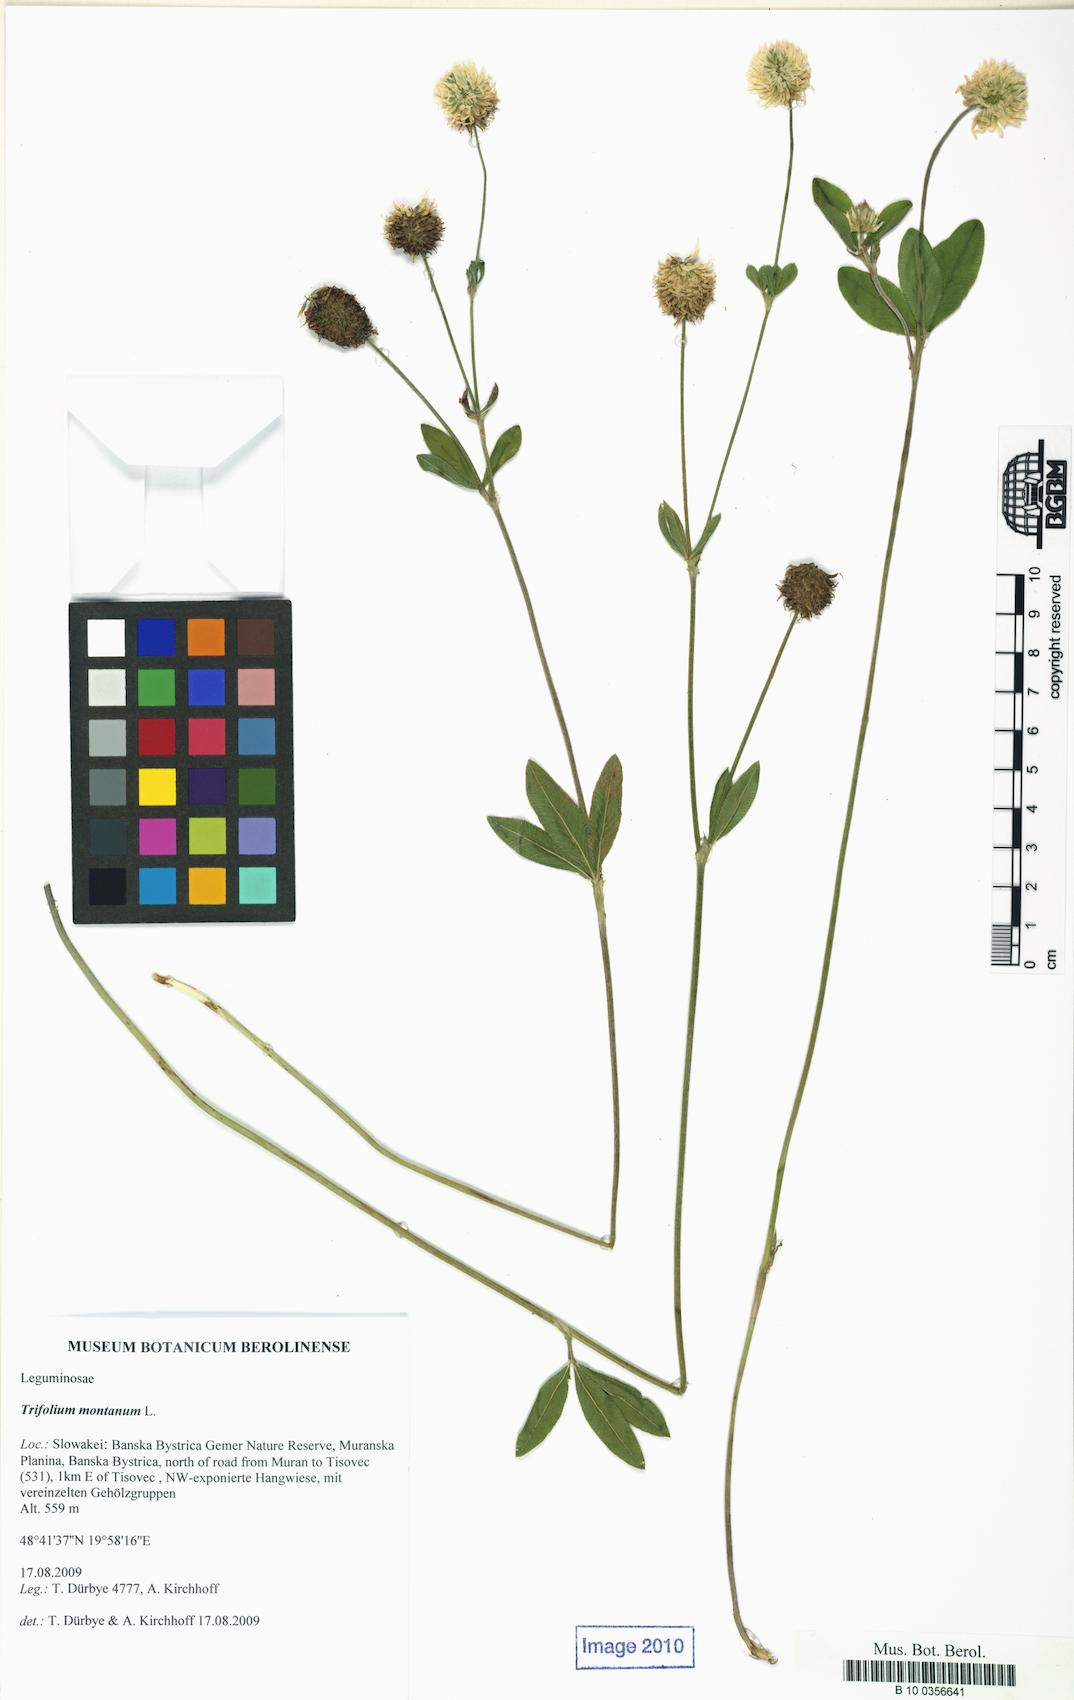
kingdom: Plantae
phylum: Tracheophyta
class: Magnoliopsida
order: Fabales
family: Fabaceae
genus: Trifolium
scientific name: Trifolium montanum
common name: Mountain clover
